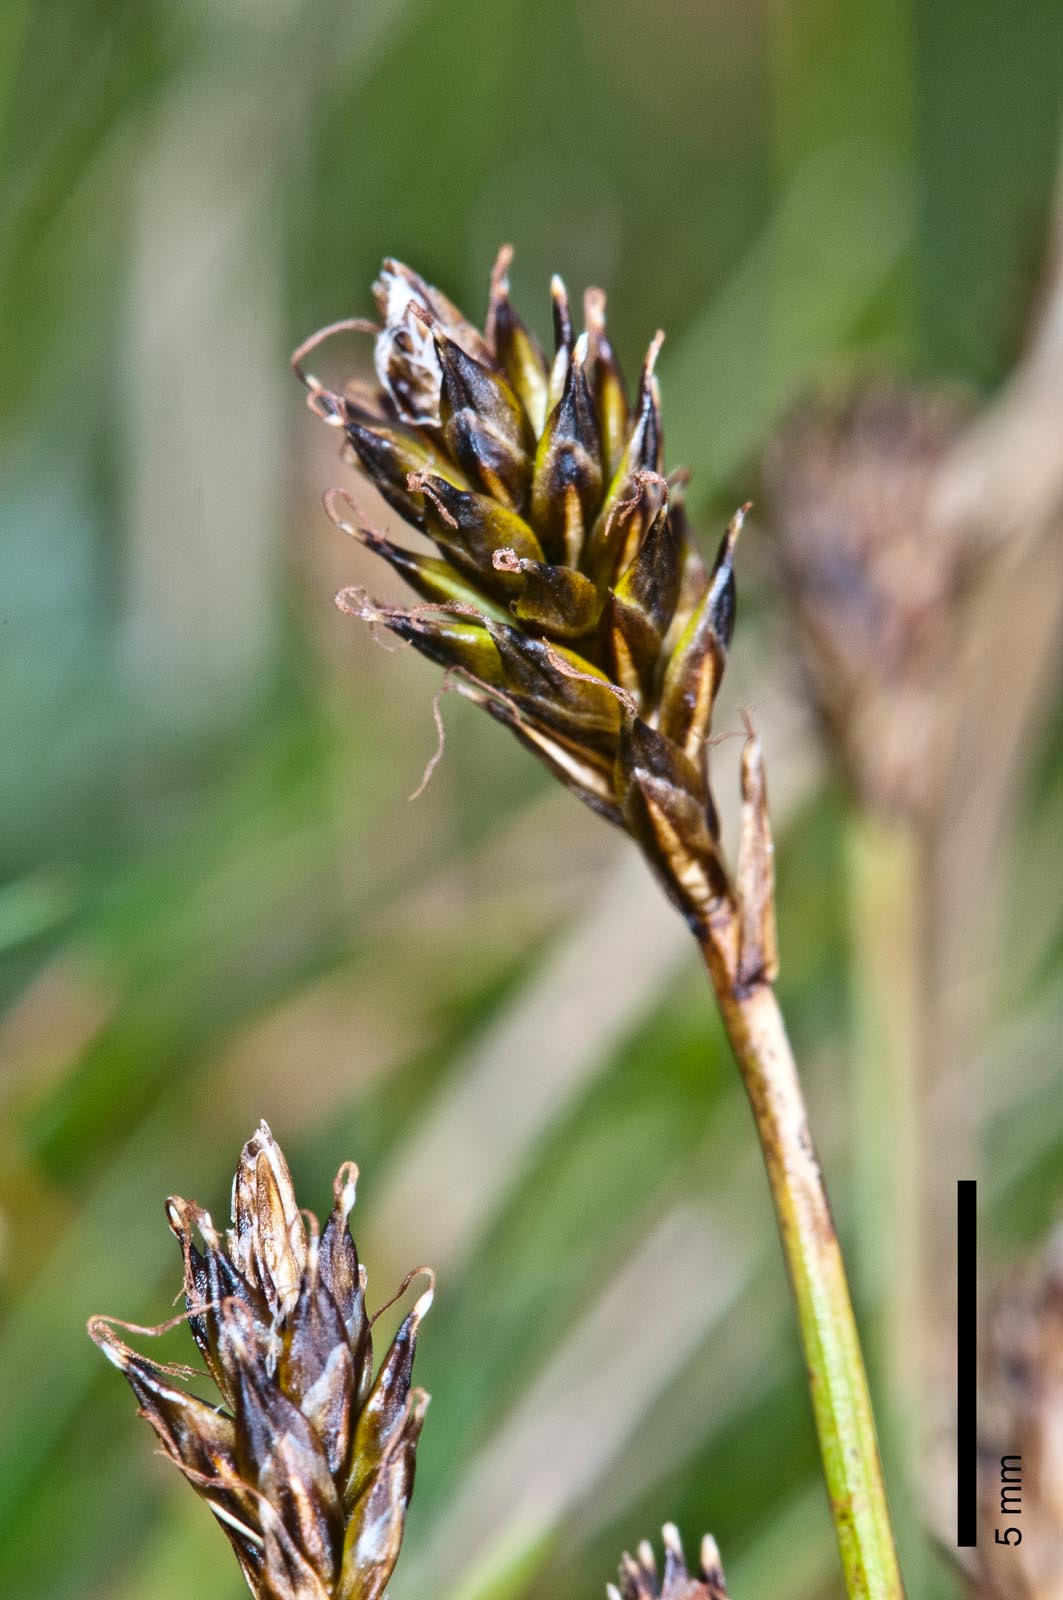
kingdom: Plantae
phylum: Tracheophyta
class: Liliopsida
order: Poales
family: Cyperaceae
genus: Carex
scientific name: Carex pyrenaica
